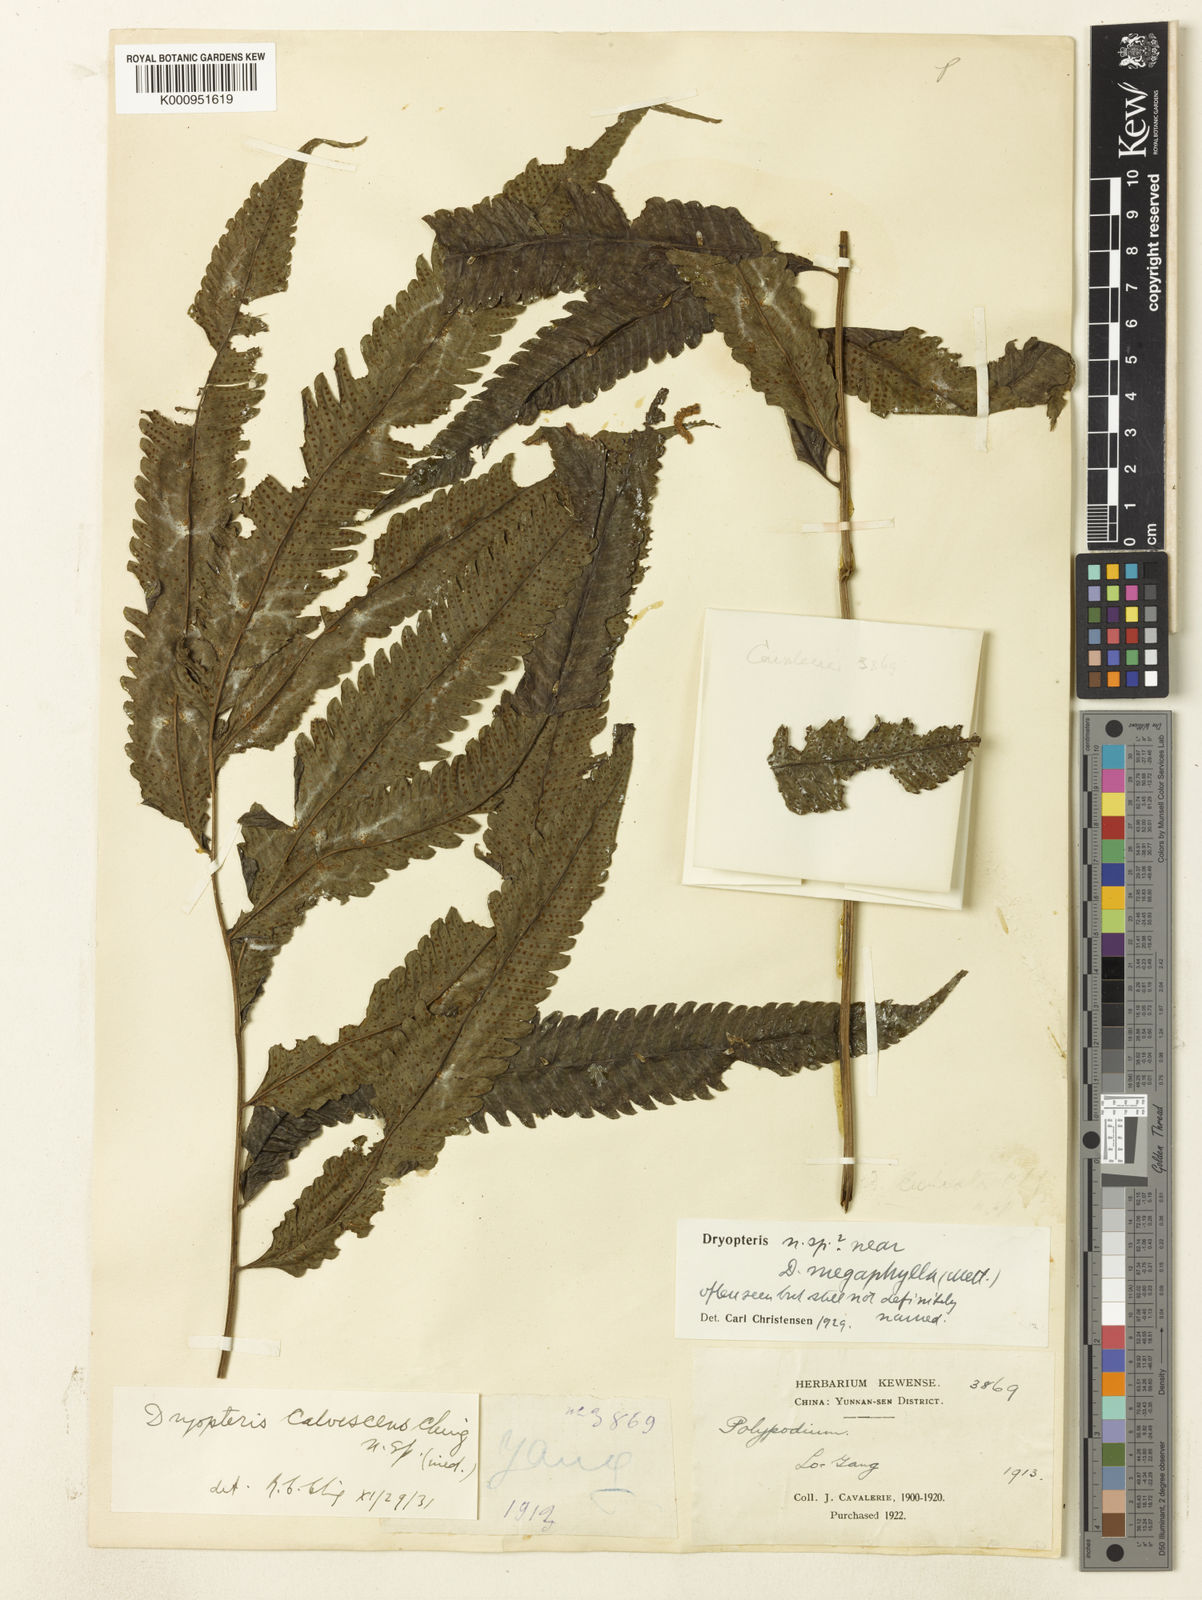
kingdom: Plantae
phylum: Tracheophyta
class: Polypodiopsida
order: Polypodiales
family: Thelypteridaceae
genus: Christella
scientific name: Christella calvescens
